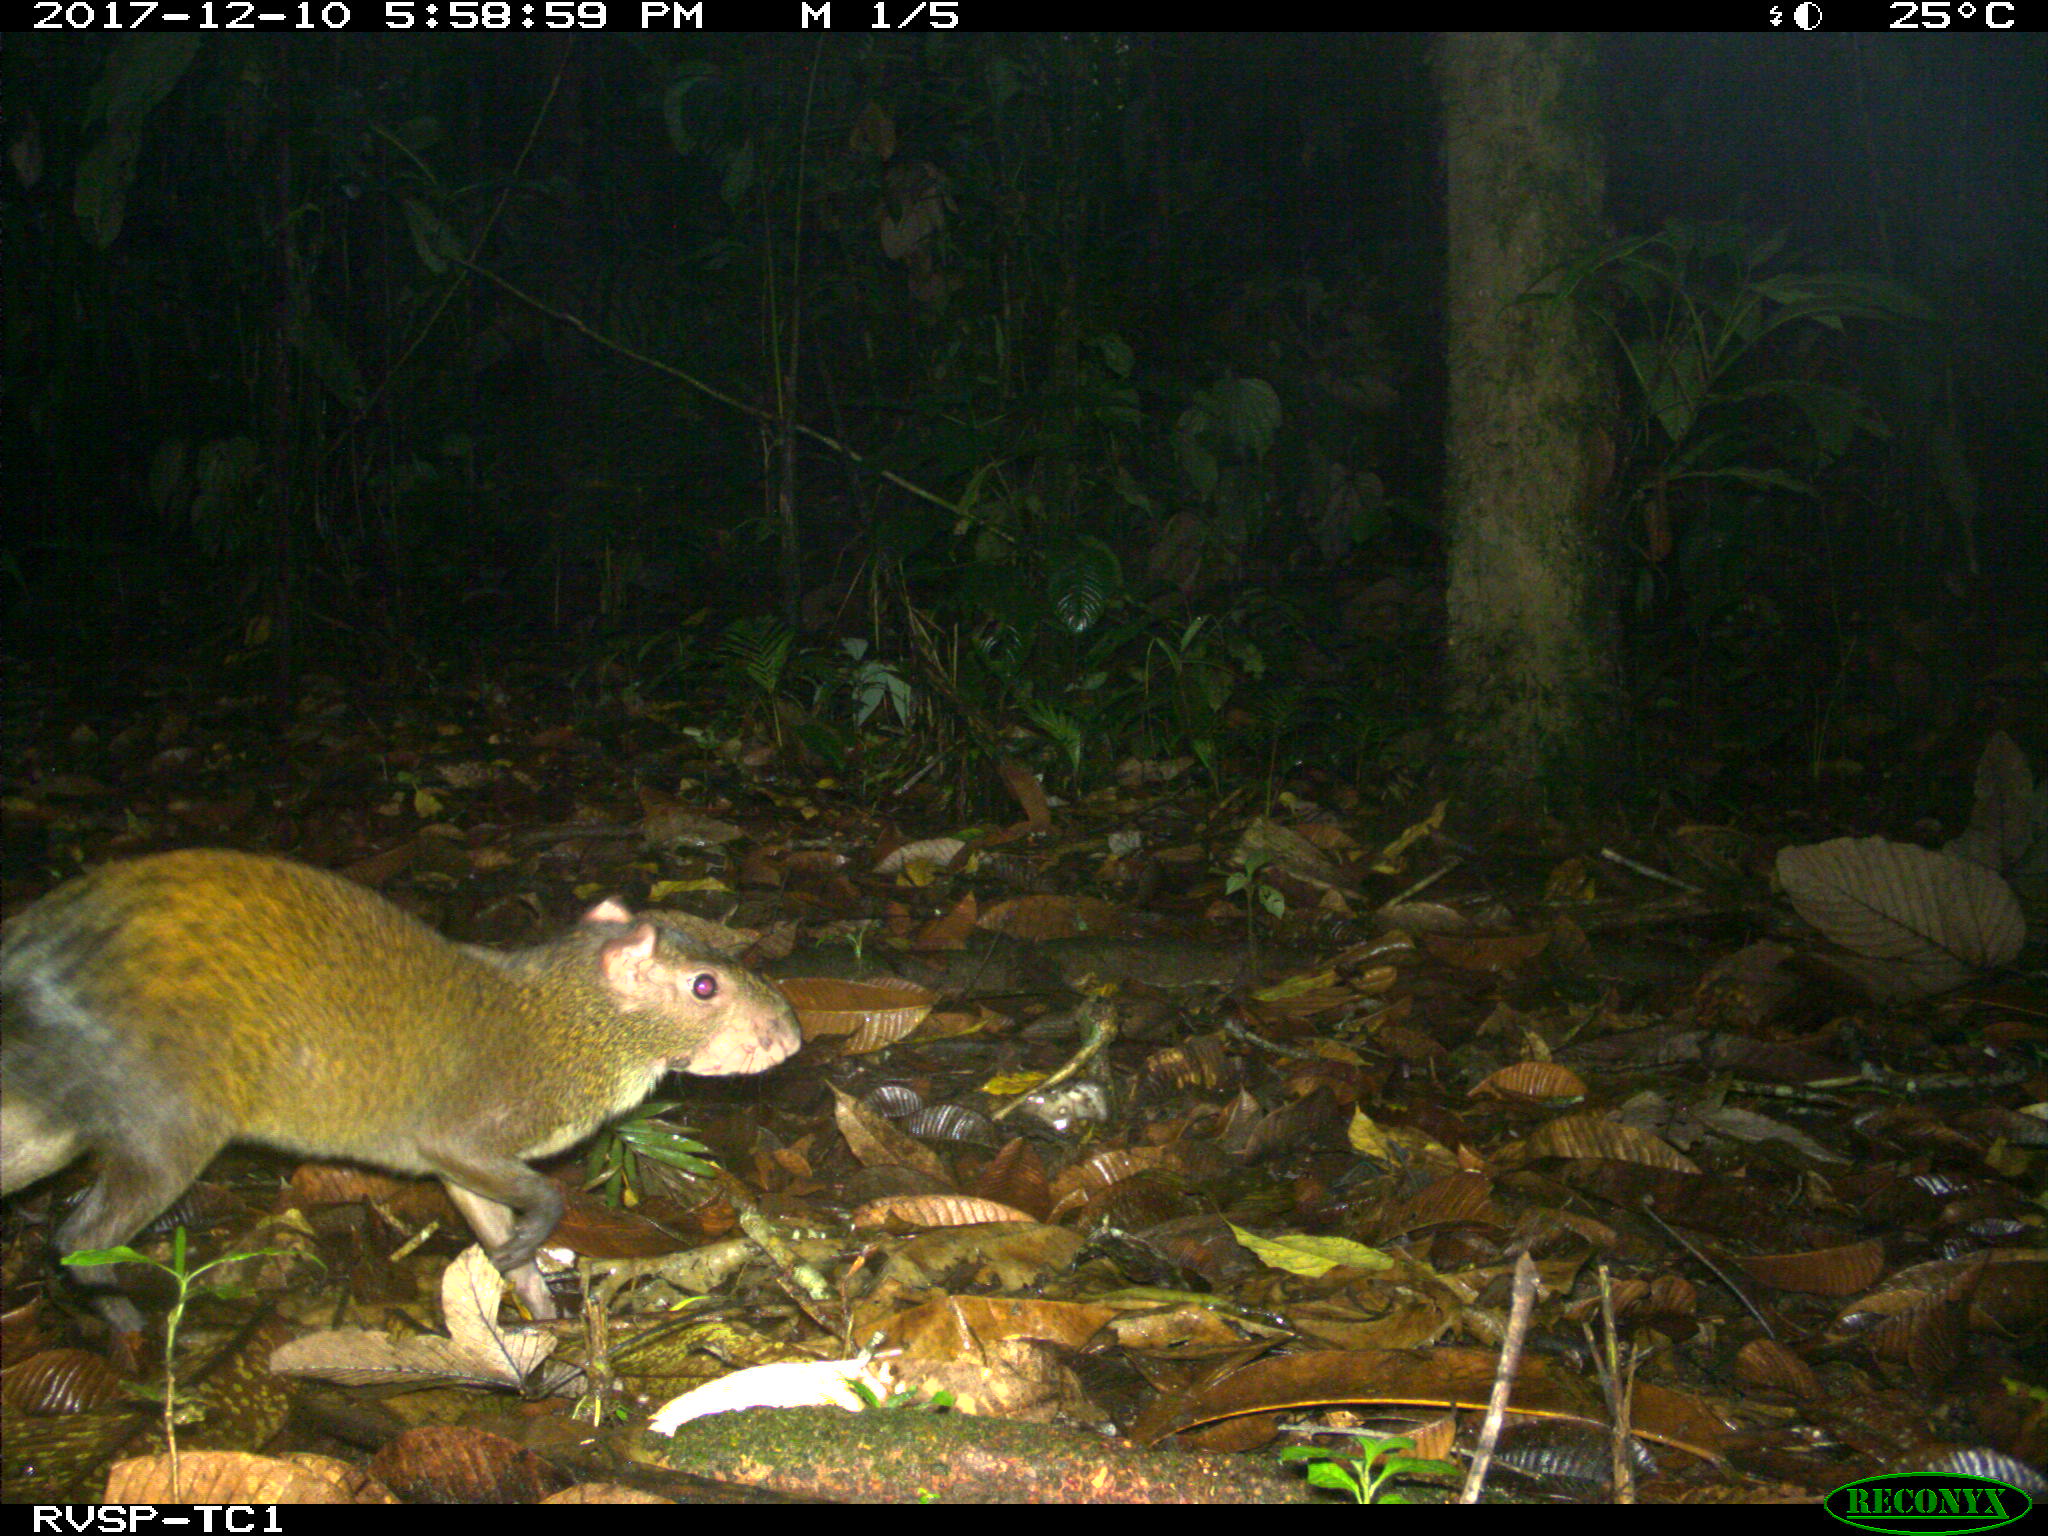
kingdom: Animalia
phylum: Chordata
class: Mammalia
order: Rodentia
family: Dasyproctidae
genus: Dasyprocta
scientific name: Dasyprocta punctata
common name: Central american agouti
